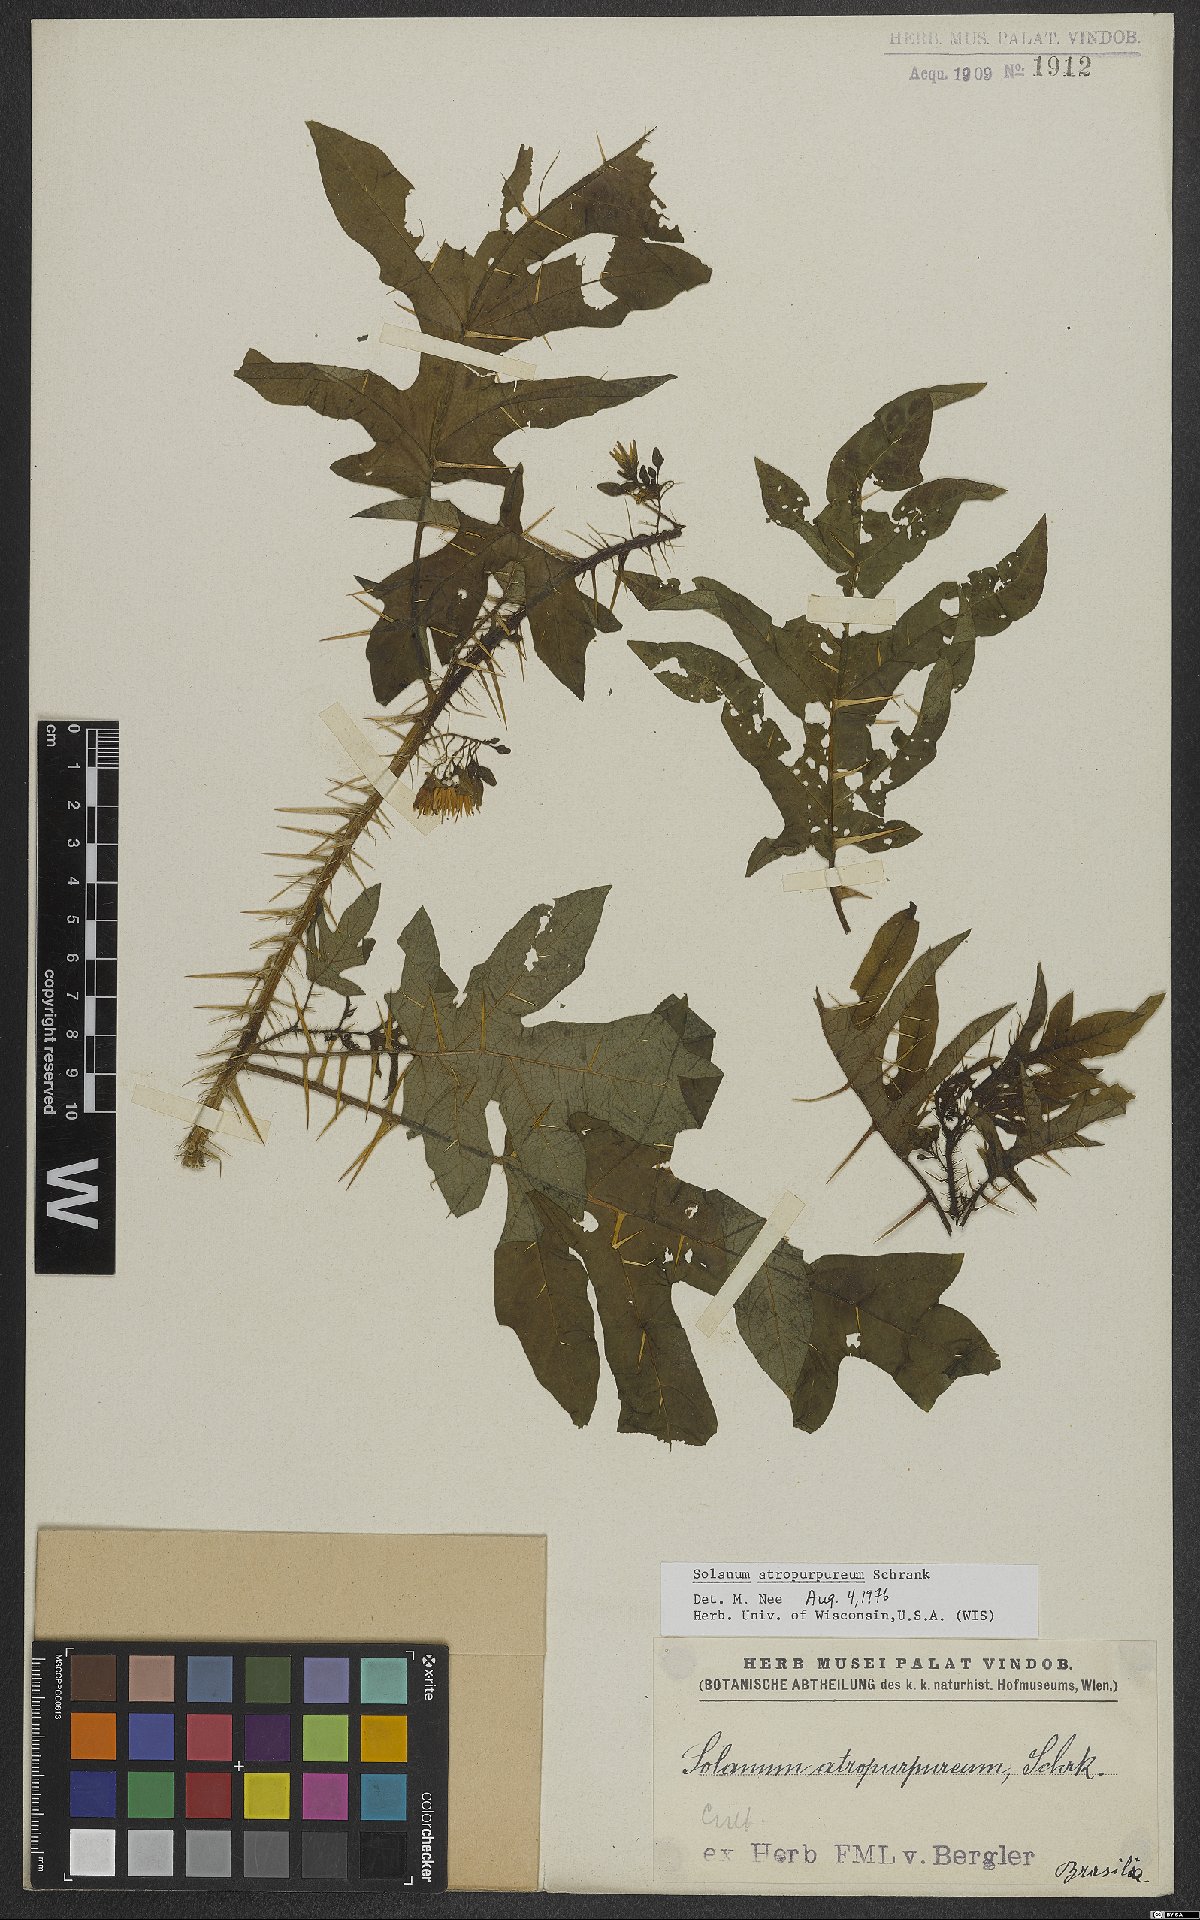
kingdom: Plantae
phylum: Tracheophyta
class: Magnoliopsida
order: Solanales
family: Solanaceae
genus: Solanum
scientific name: Solanum atropurpureum
